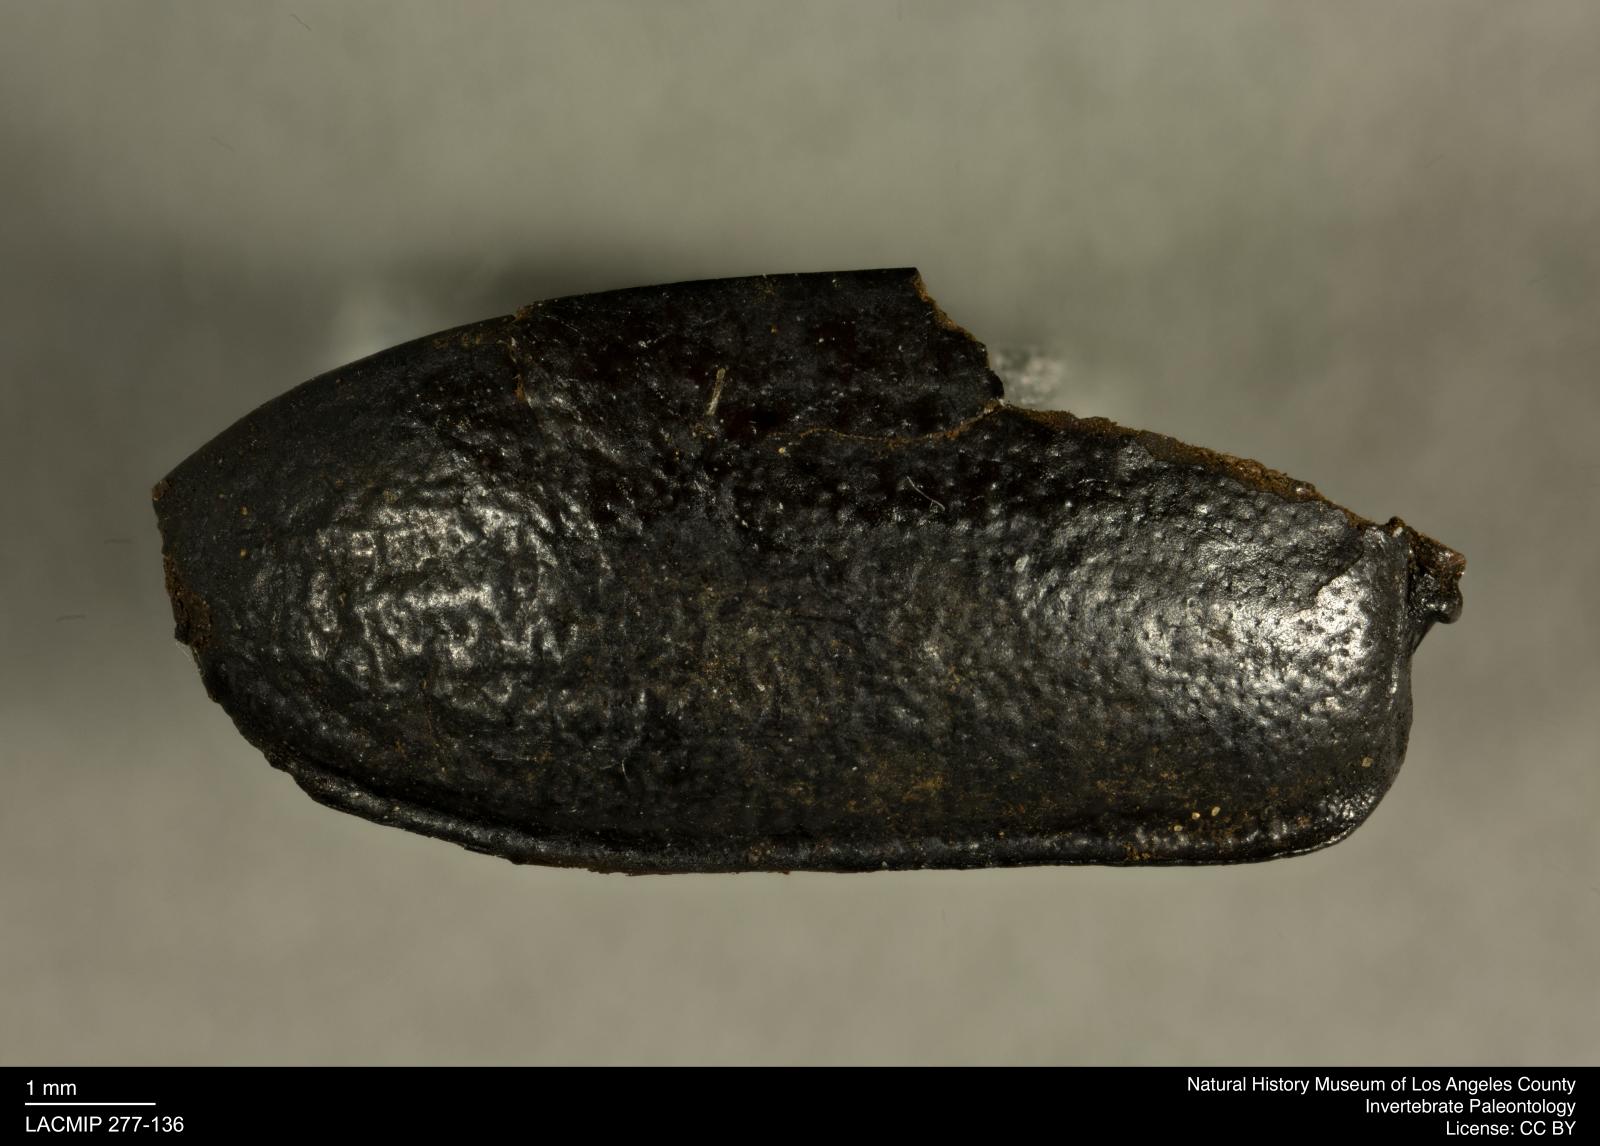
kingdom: Animalia
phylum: Arthropoda
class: Insecta
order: Coleoptera
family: Tenebrionidae
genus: Coniontis
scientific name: Coniontis abdominalis
